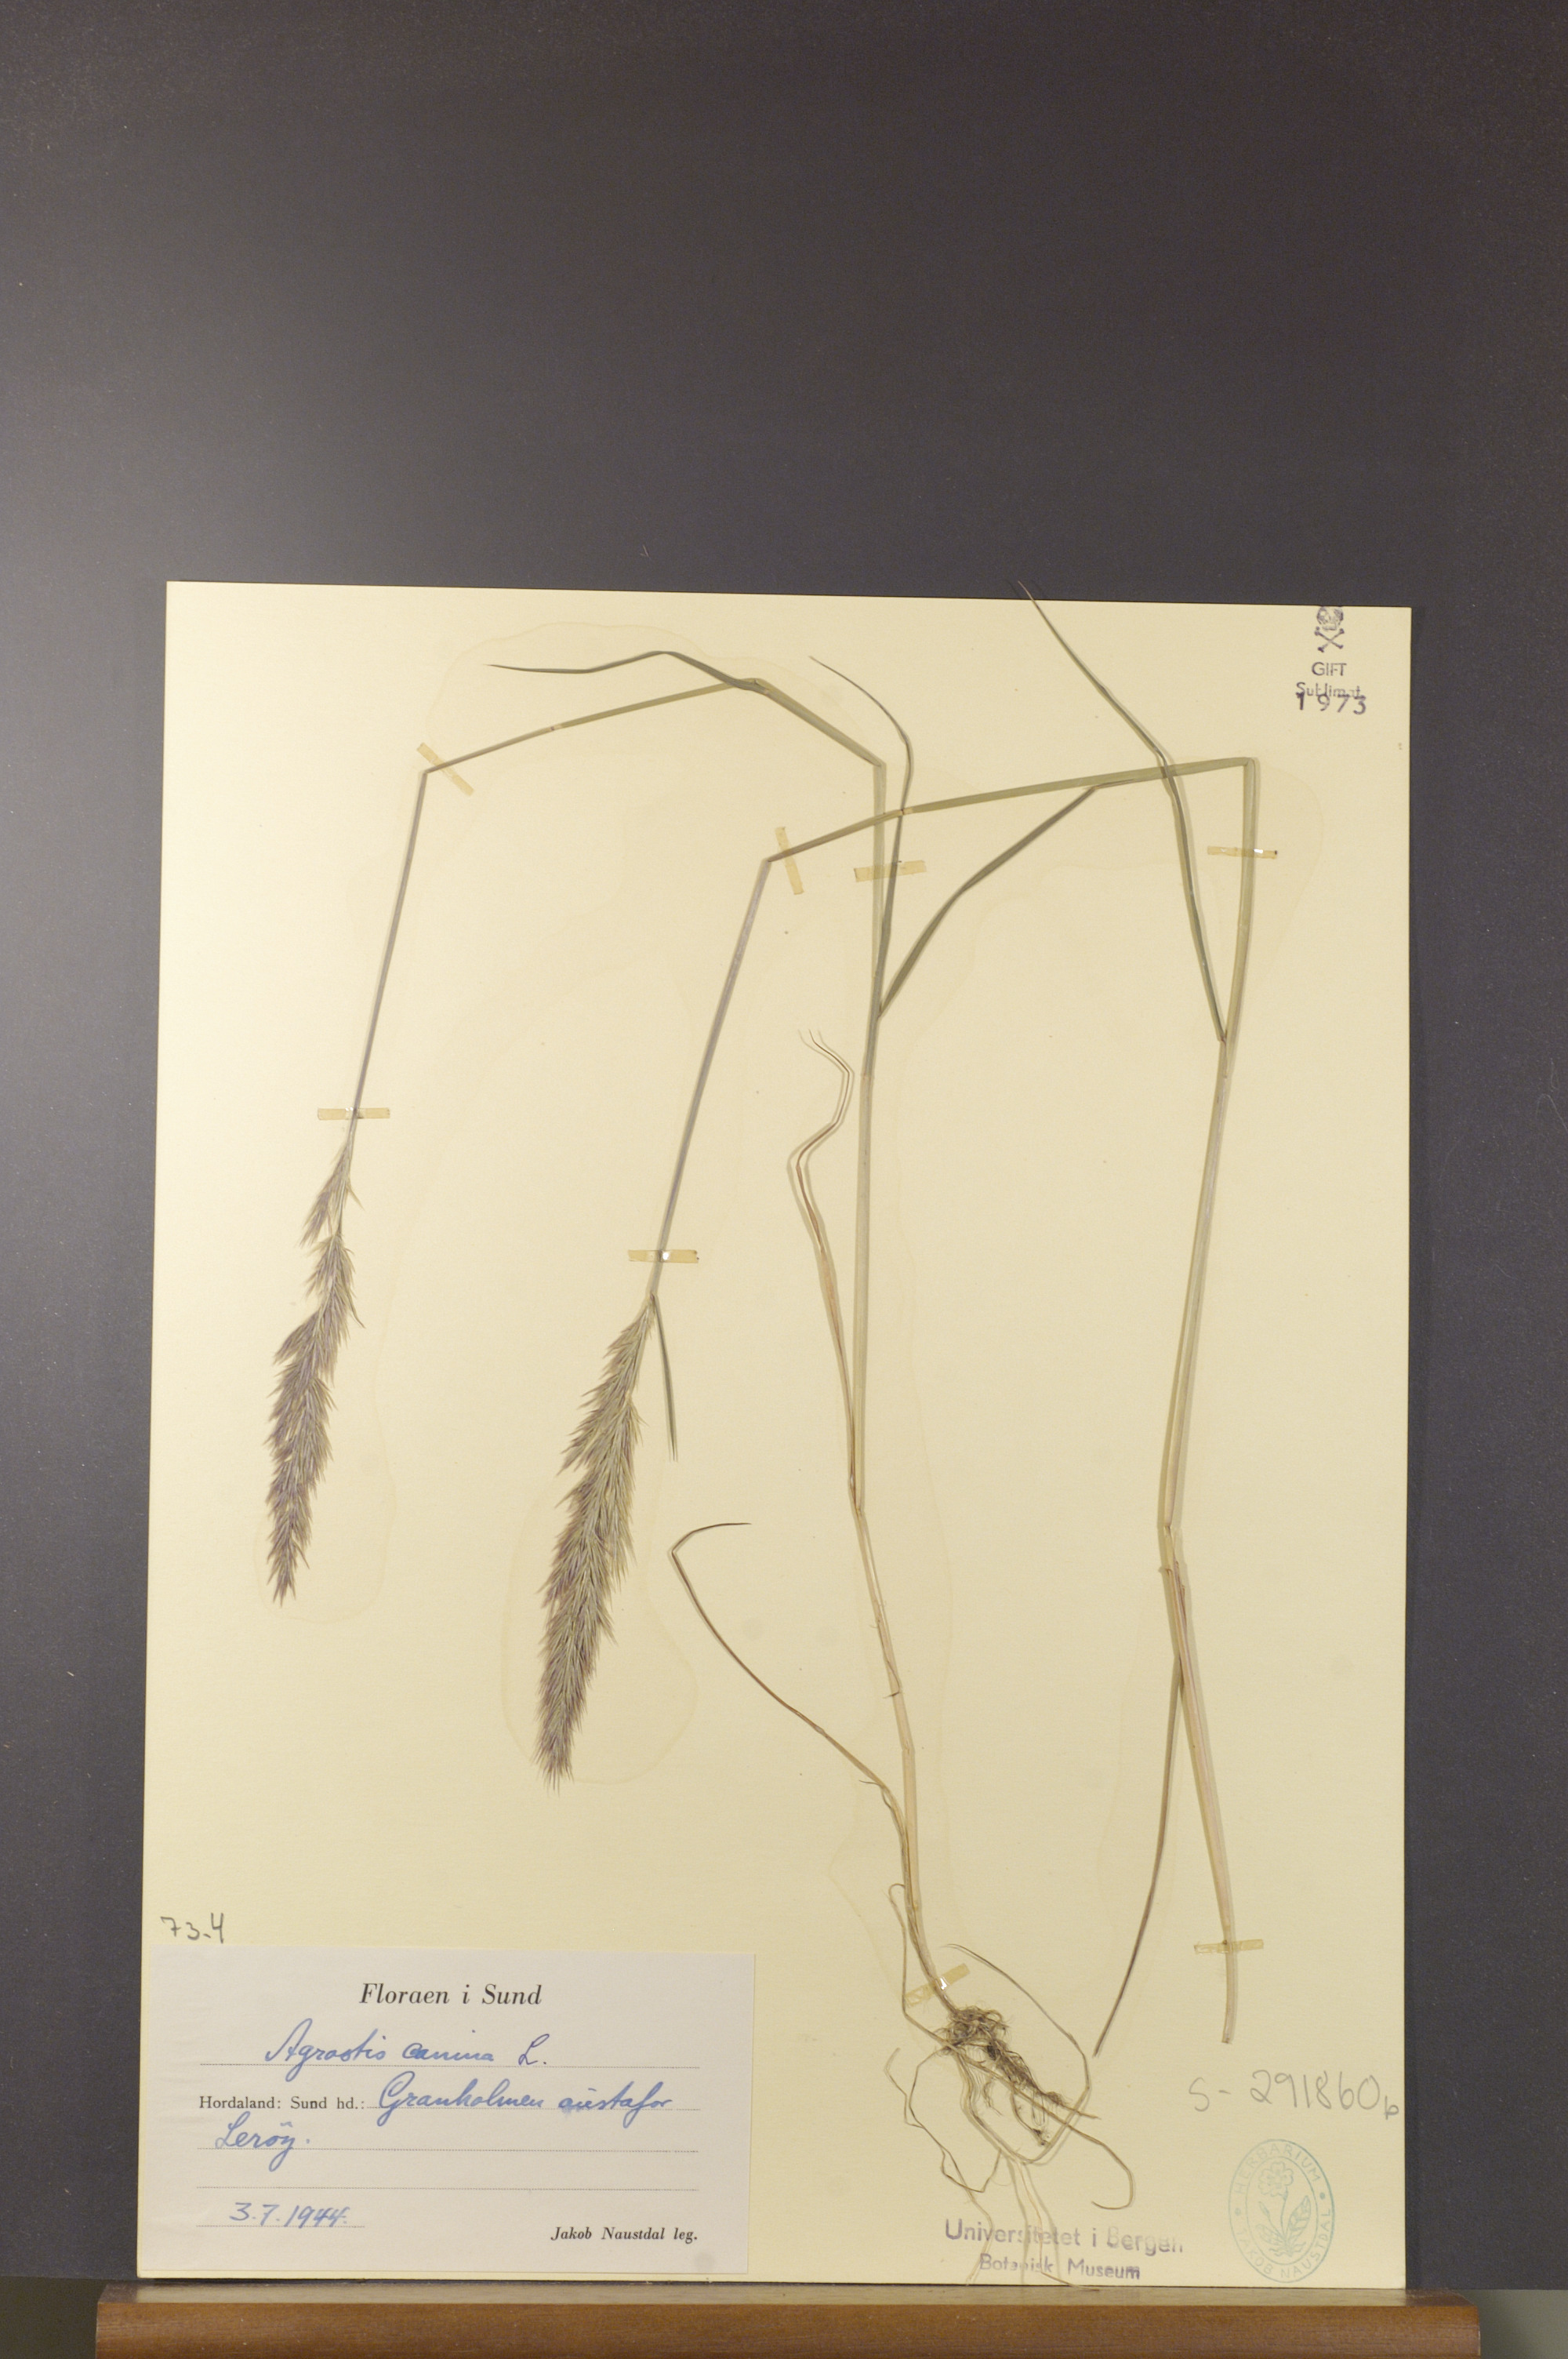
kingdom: Plantae
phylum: Tracheophyta
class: Liliopsida
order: Poales
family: Poaceae
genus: Agrostis
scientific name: Agrostis canina
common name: Velvet bent
